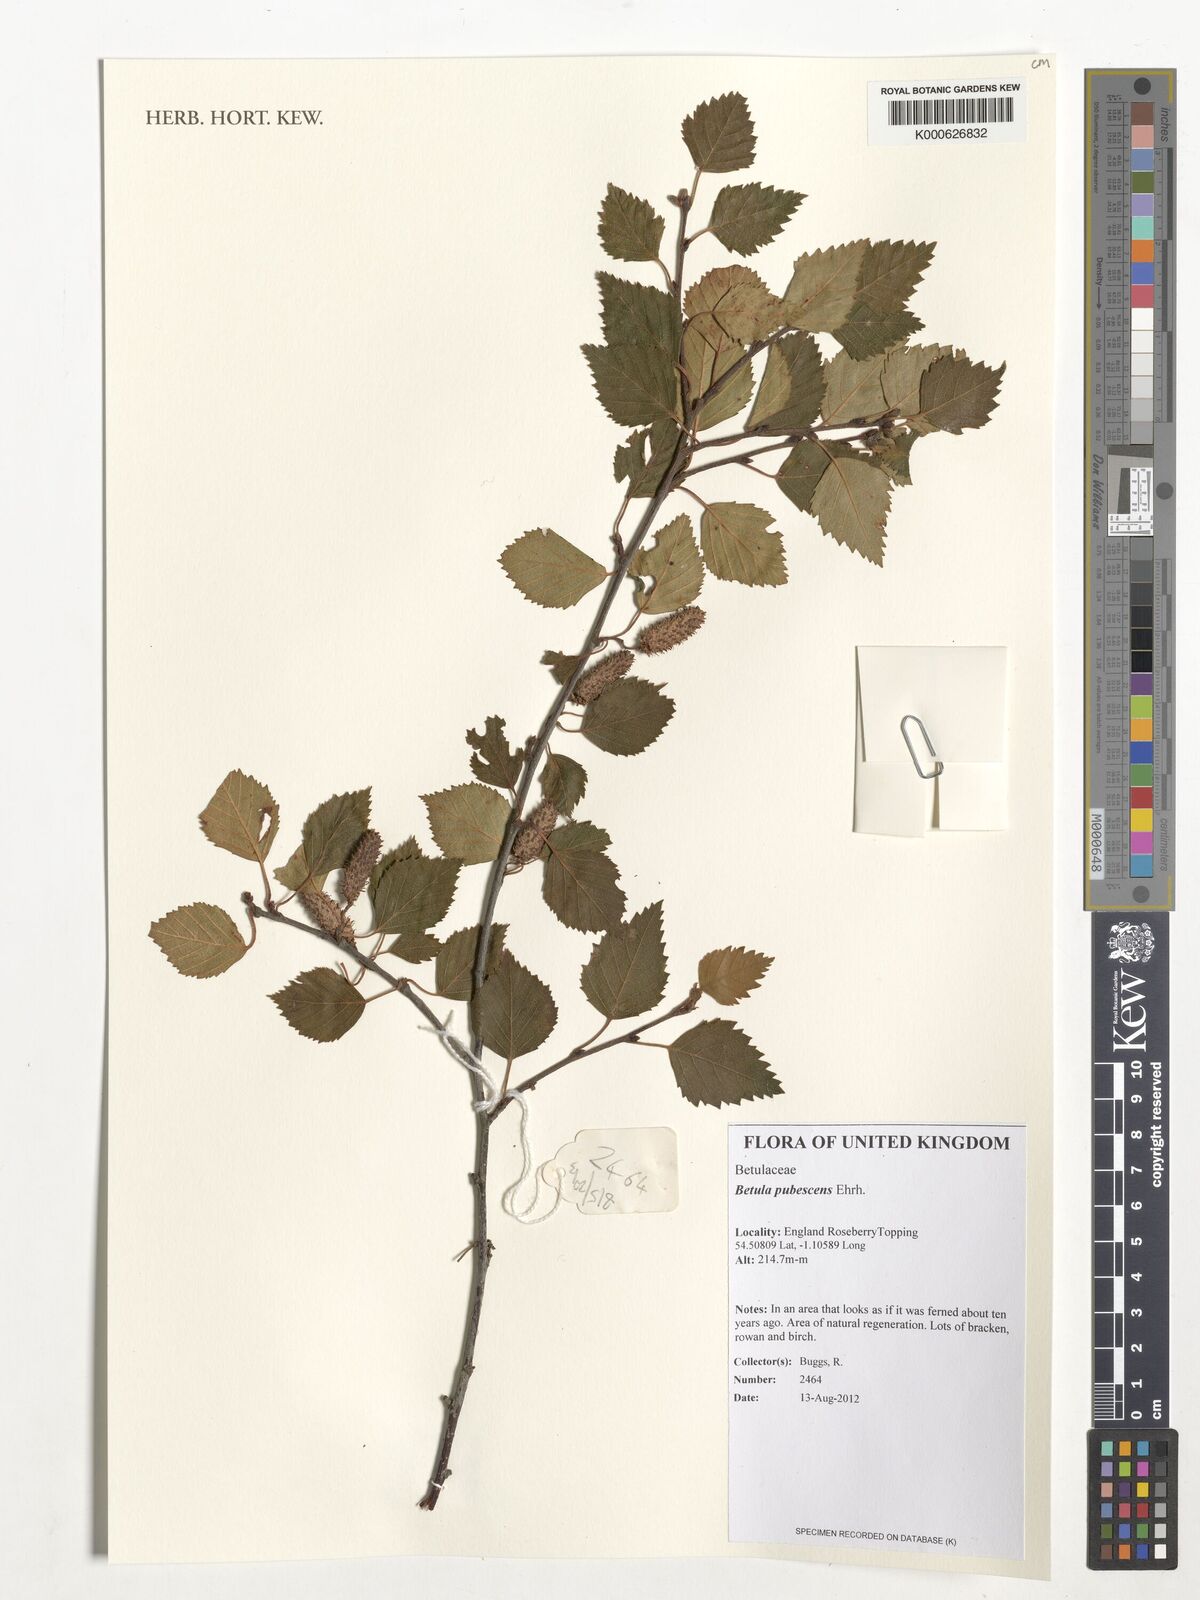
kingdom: Plantae
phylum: Tracheophyta
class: Magnoliopsida
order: Fagales
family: Betulaceae
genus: Betula
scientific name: Betula pubescens
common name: Downy birch
